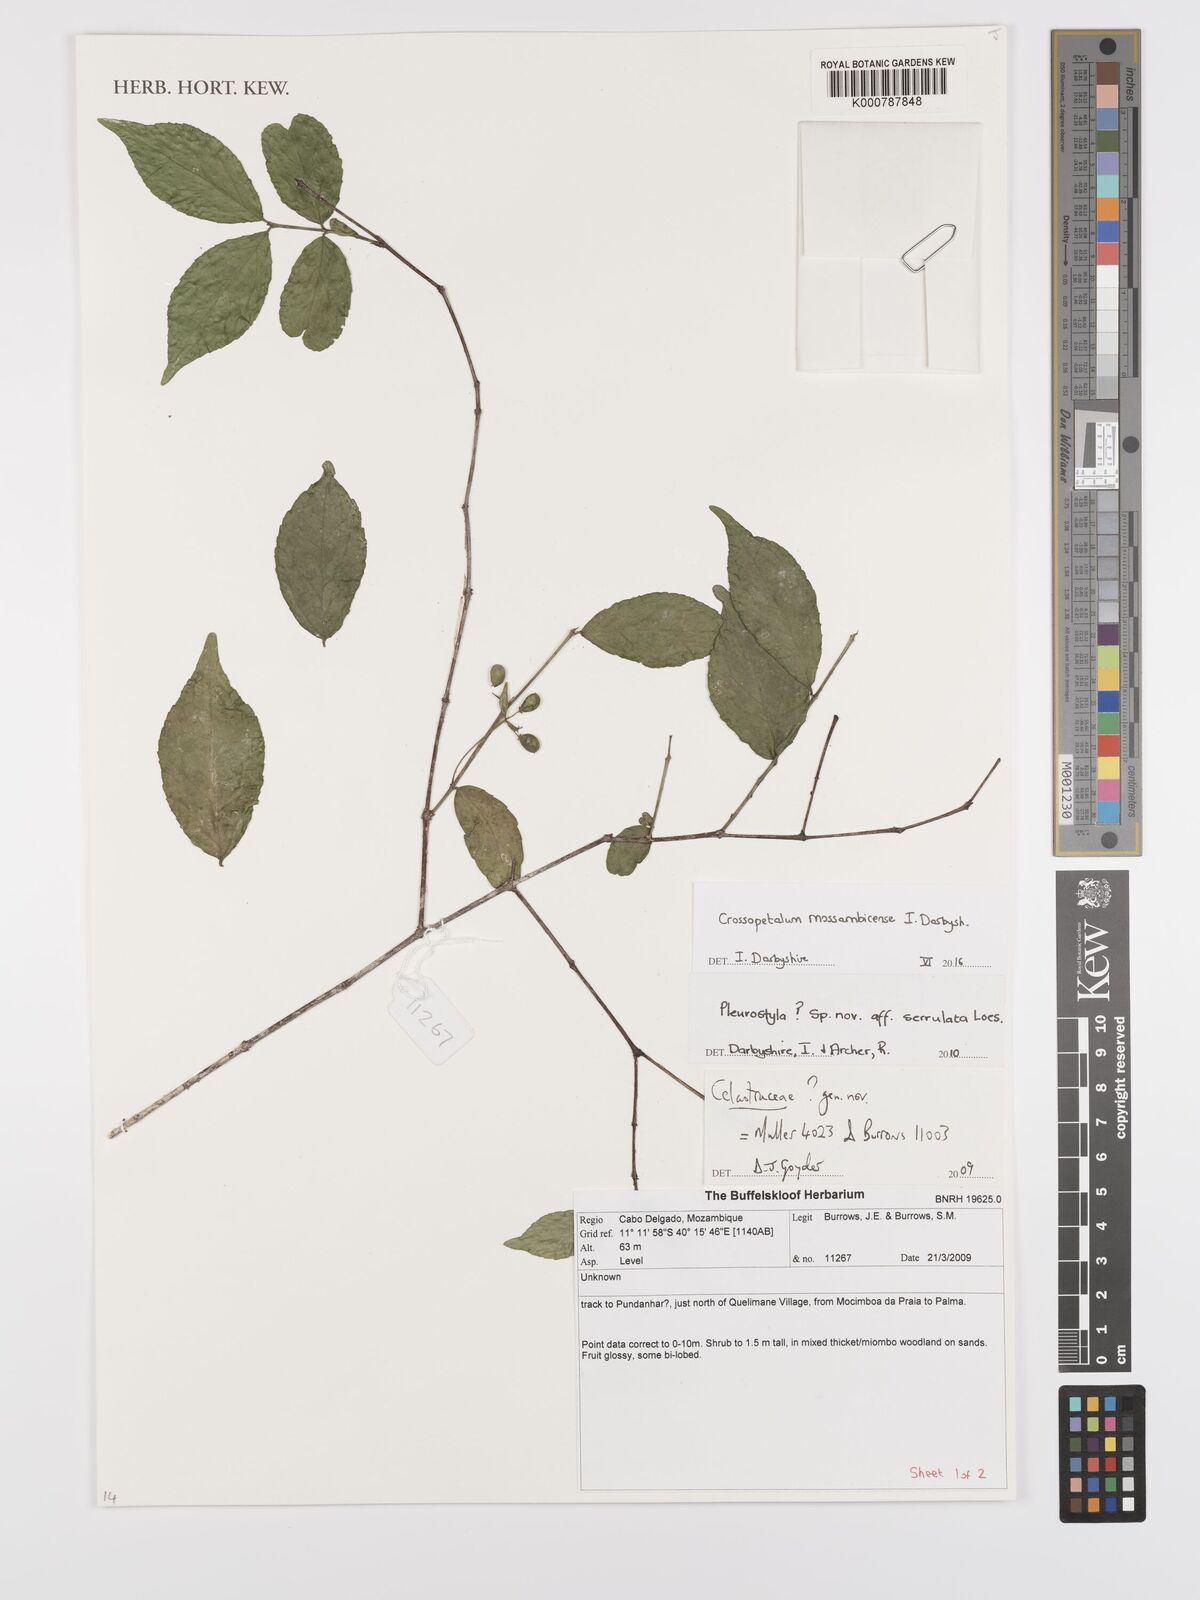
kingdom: Plantae
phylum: Tracheophyta
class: Magnoliopsida
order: Celastrales
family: Celastraceae
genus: Crossopetalum
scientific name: Crossopetalum mossambicense
